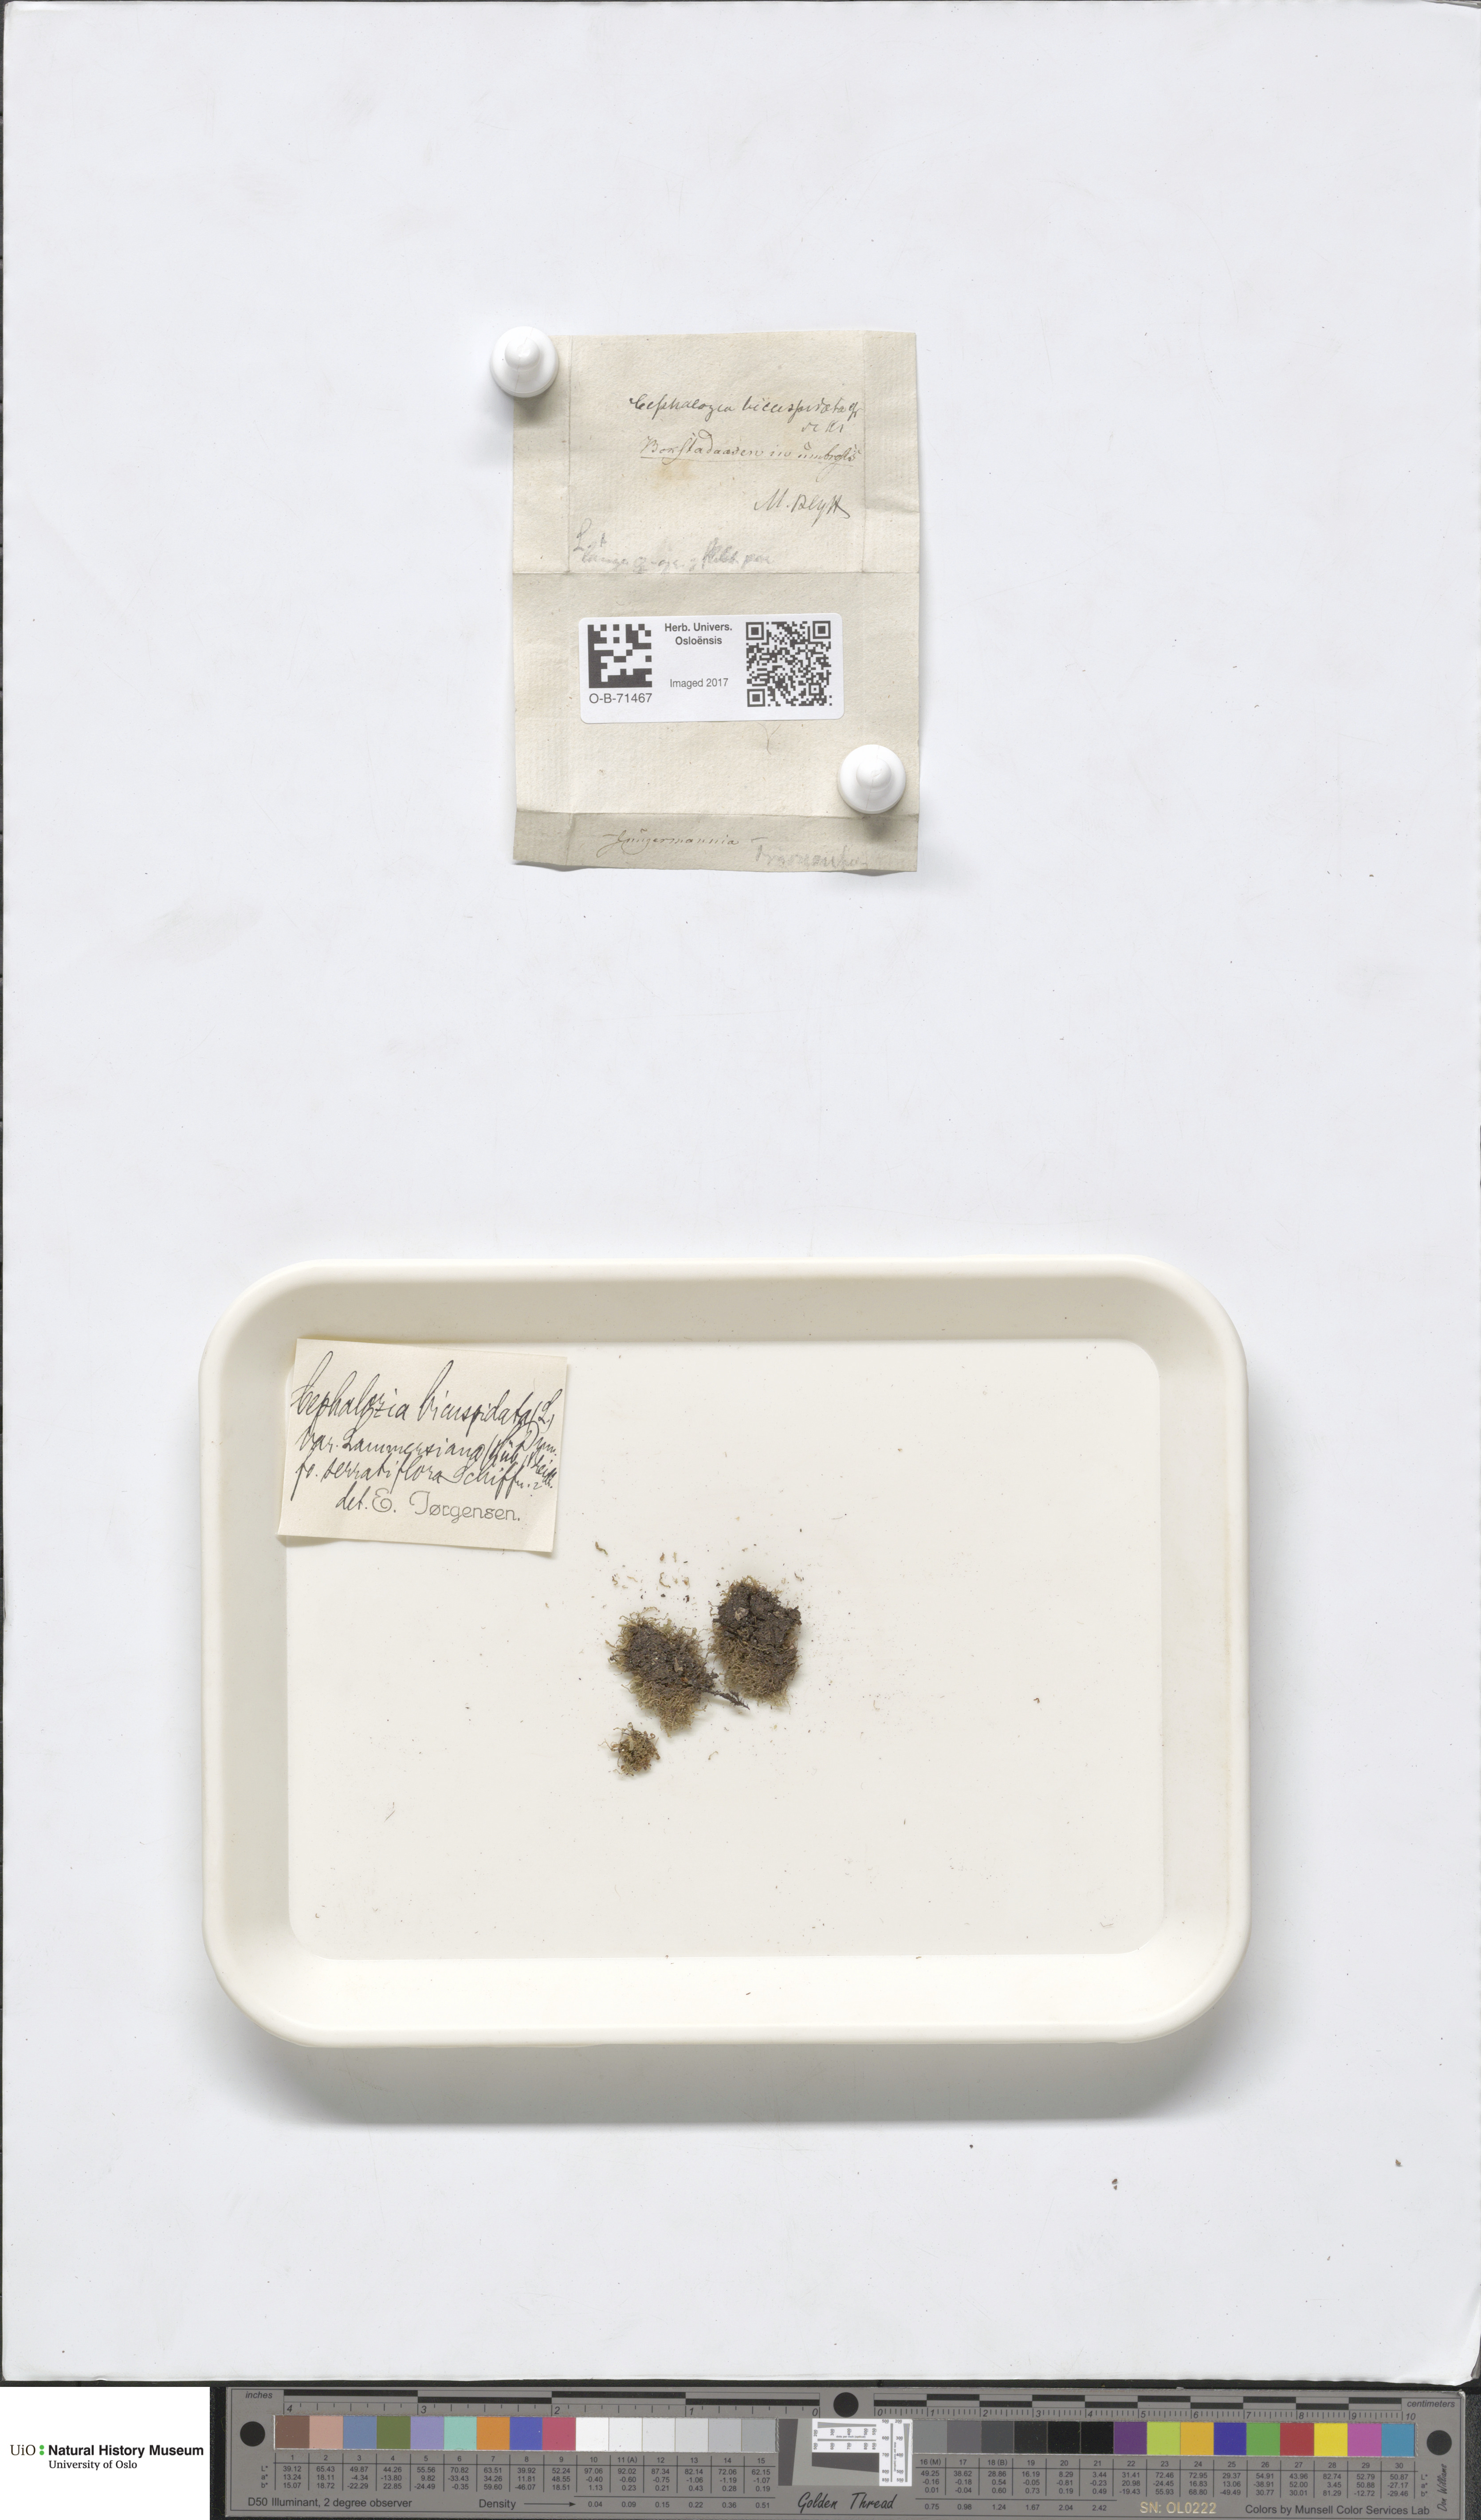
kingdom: Plantae
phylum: Marchantiophyta
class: Jungermanniopsida
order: Jungermanniales
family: Cephaloziaceae
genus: Cephalozia
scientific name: Cephalozia bicuspidata
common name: Two-horned pincerwort
